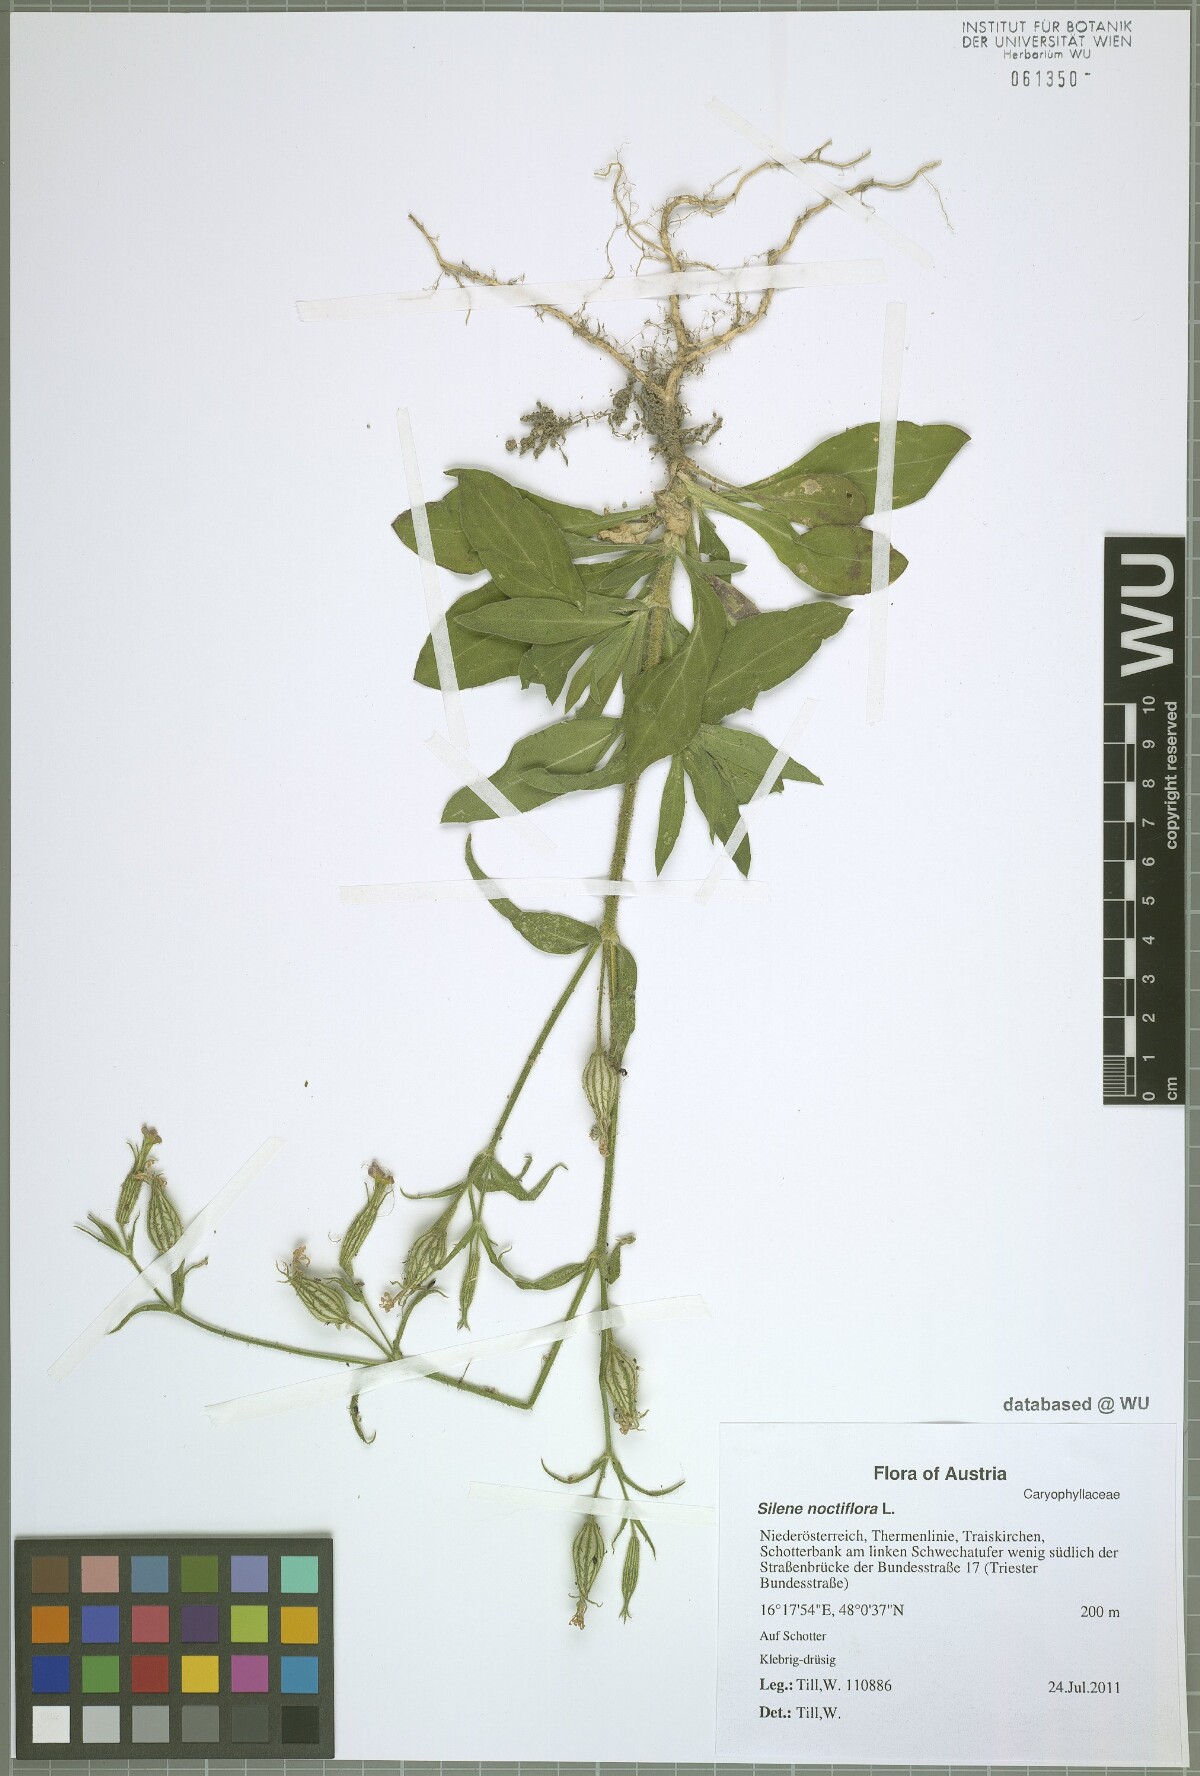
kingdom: Plantae
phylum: Tracheophyta
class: Magnoliopsida
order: Caryophyllales
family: Caryophyllaceae
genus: Silene
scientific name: Silene noctiflora
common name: Night-flowering catchfly
